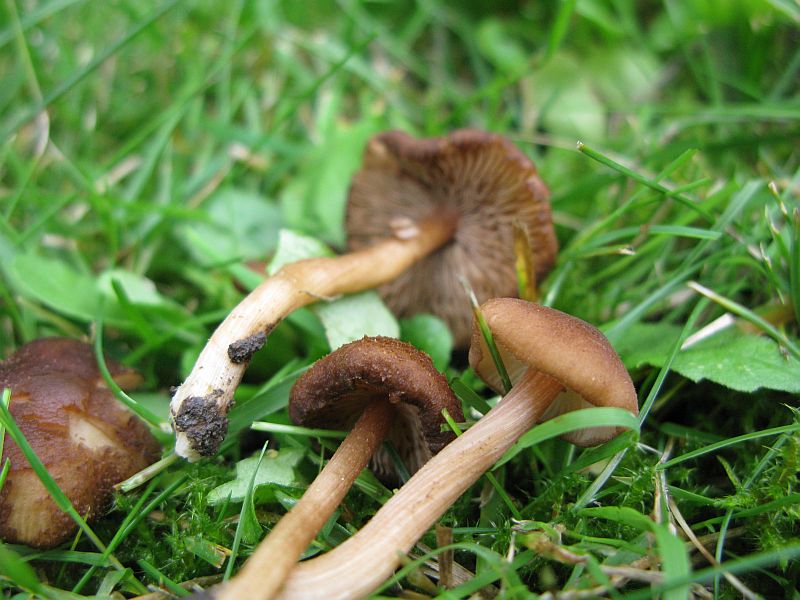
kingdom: Fungi
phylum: Basidiomycota
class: Agaricomycetes
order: Agaricales
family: Inocybaceae
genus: Inocybe
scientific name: Inocybe
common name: trævlhat
